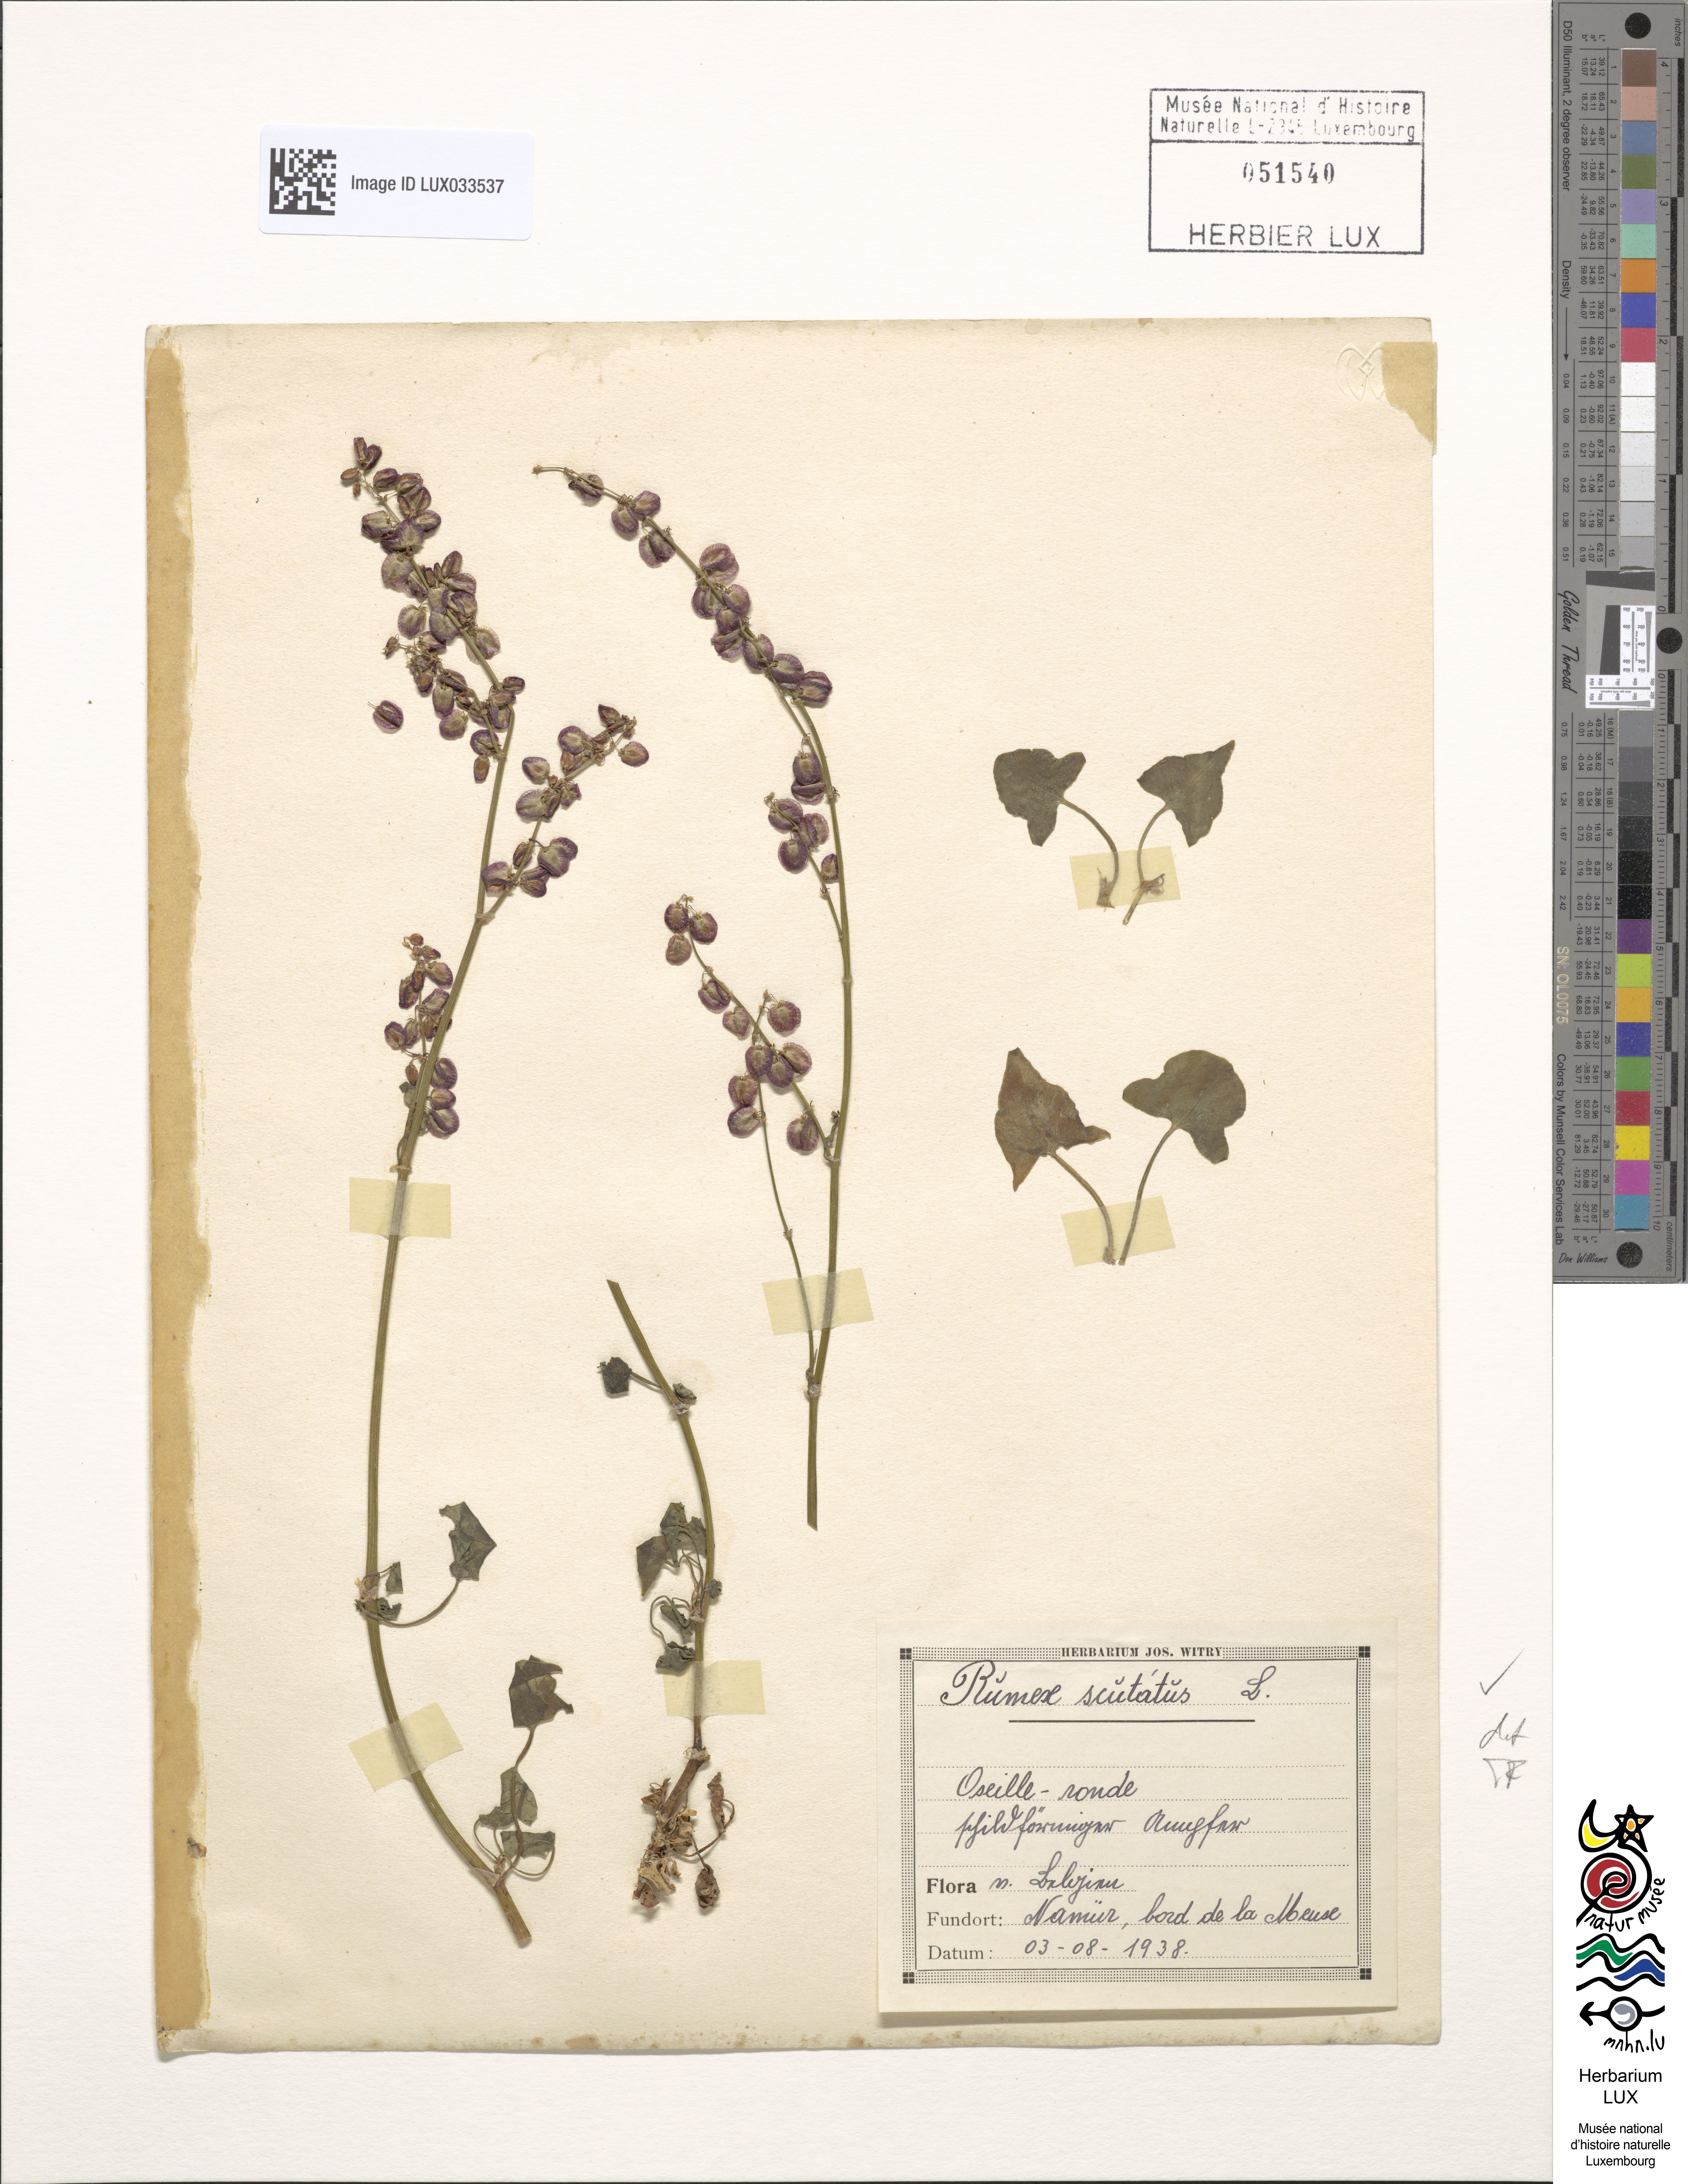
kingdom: Plantae
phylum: Tracheophyta
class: Magnoliopsida
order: Caryophyllales
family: Polygonaceae
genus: Rumex
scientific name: Rumex scutatus
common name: French sorrel
